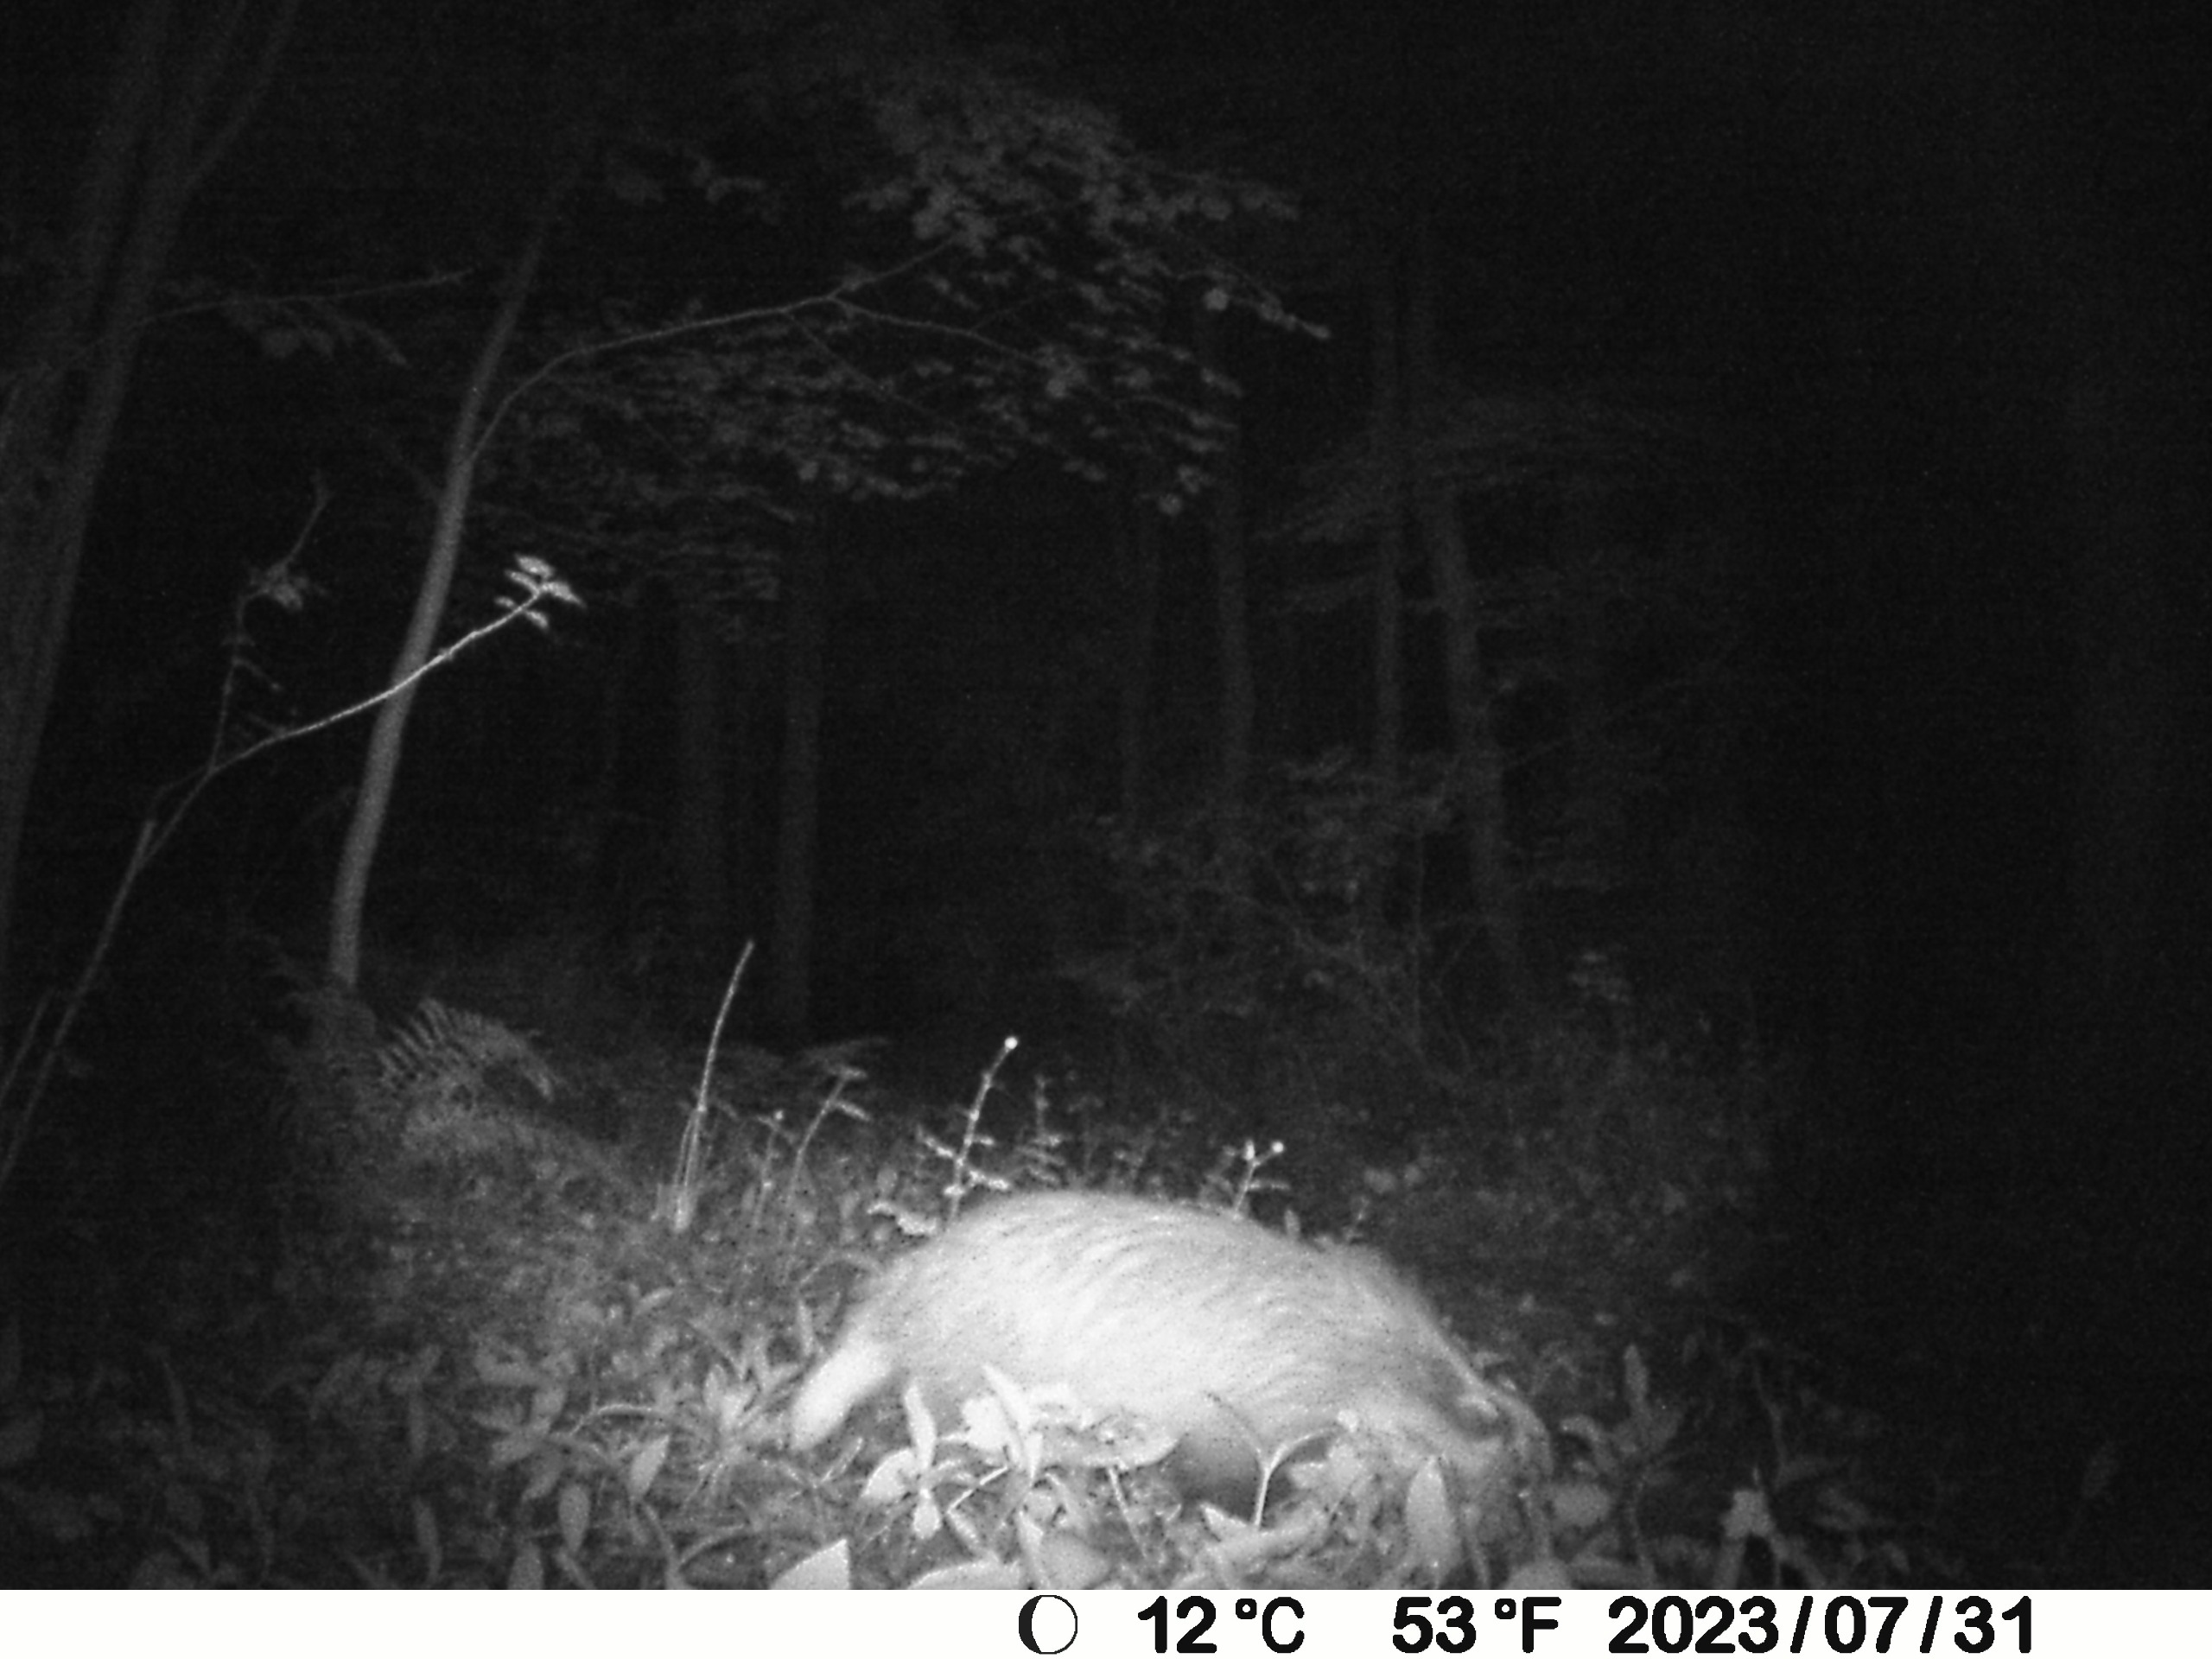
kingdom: Animalia
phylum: Chordata
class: Mammalia
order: Carnivora
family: Mustelidae
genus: Meles
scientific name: Meles meles
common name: Grævling
